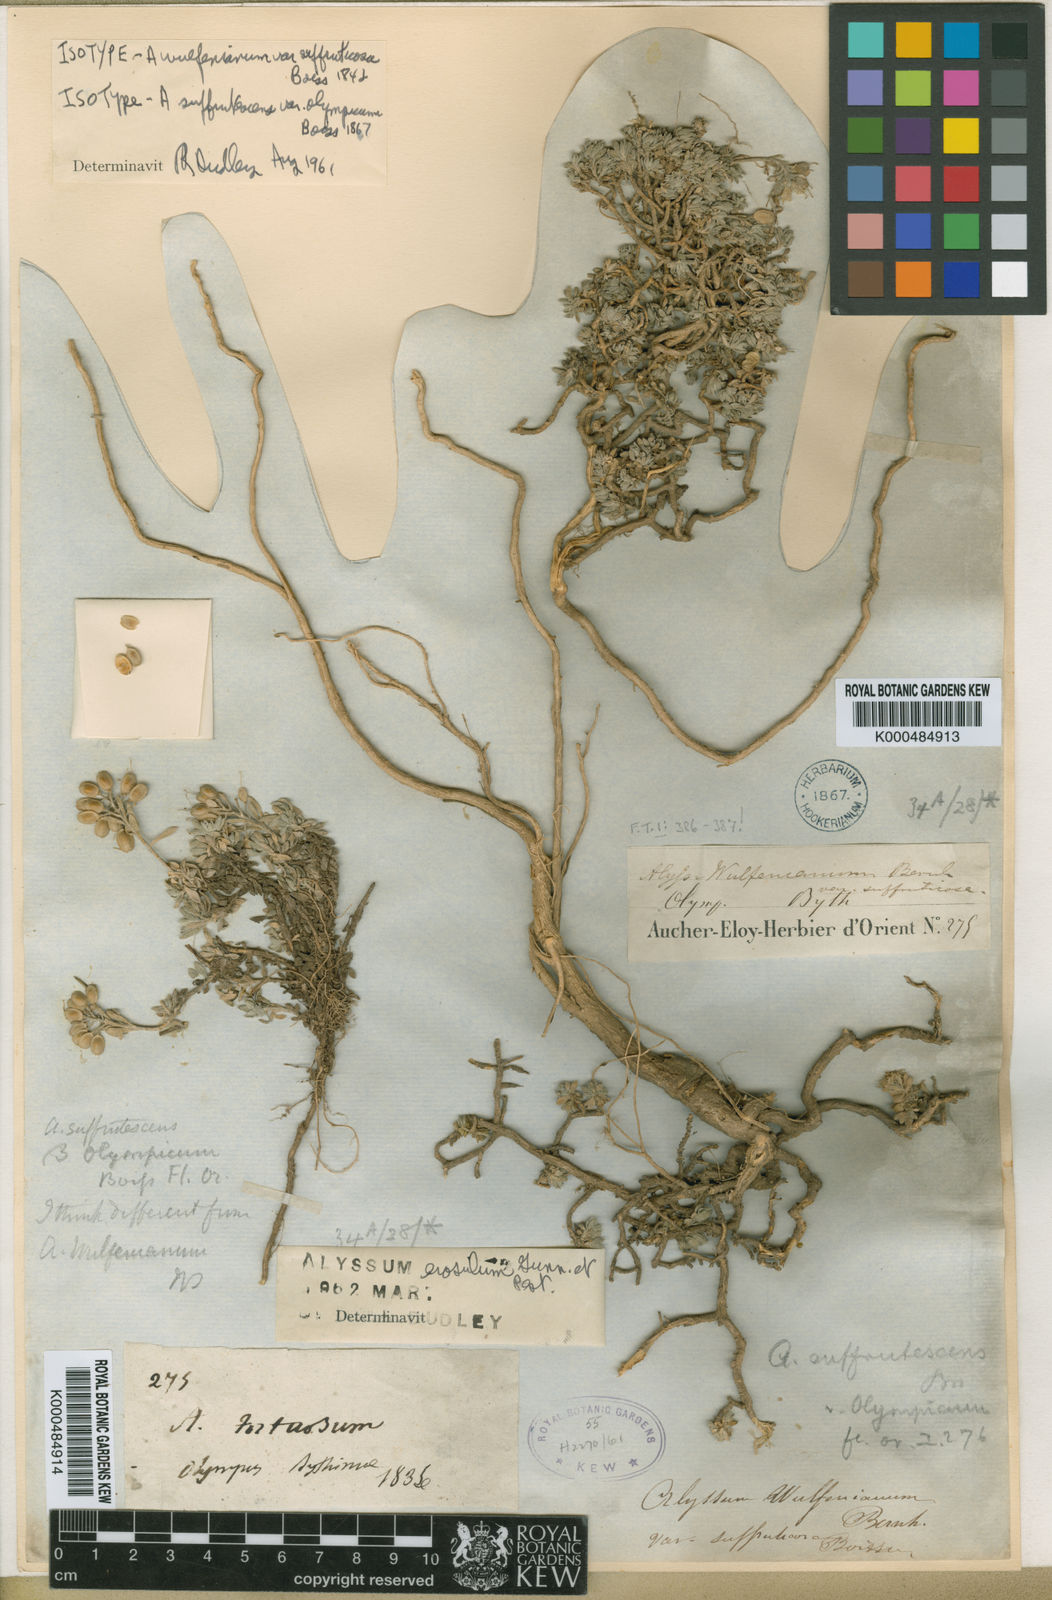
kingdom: Plantae
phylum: Tracheophyta
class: Magnoliopsida
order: Brassicales
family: Brassicaceae
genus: Alyssum
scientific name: Alyssum erosulum
